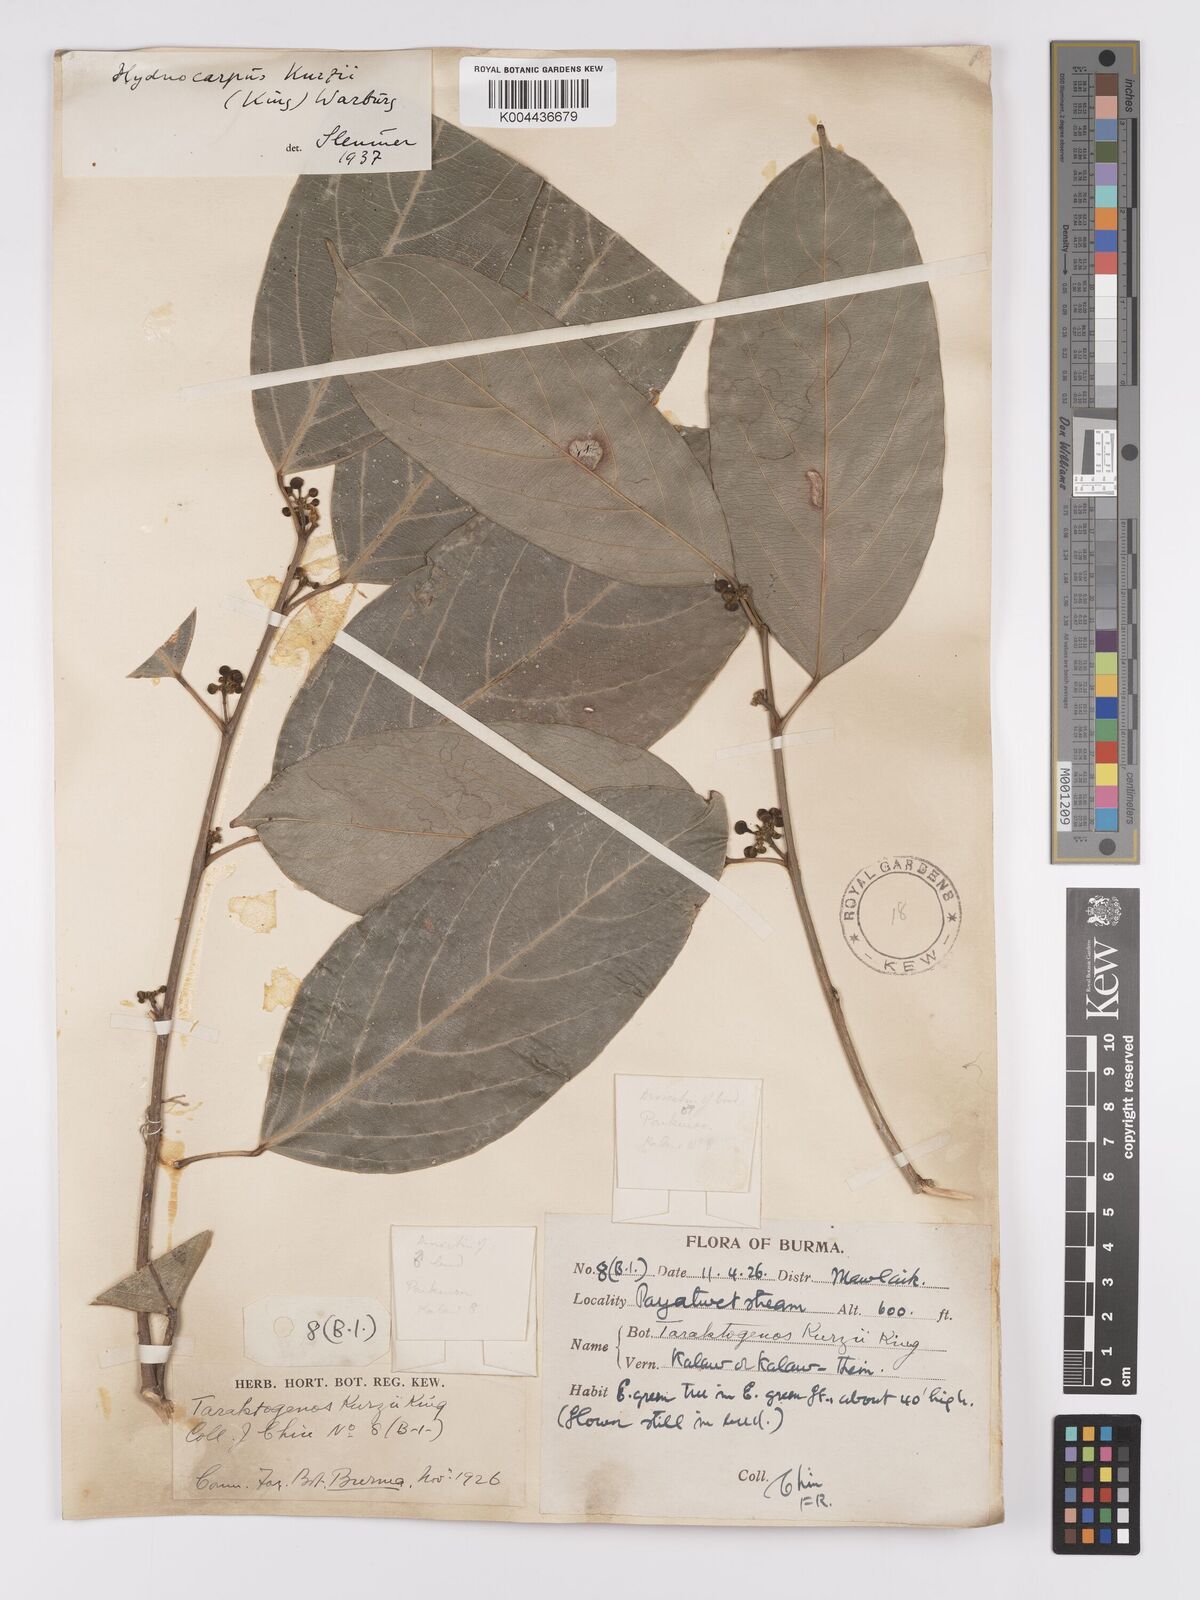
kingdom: Plantae
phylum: Tracheophyta
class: Magnoliopsida
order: Malpighiales
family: Achariaceae
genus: Hydnocarpus
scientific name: Hydnocarpus kurzii
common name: Chaulmoogra
